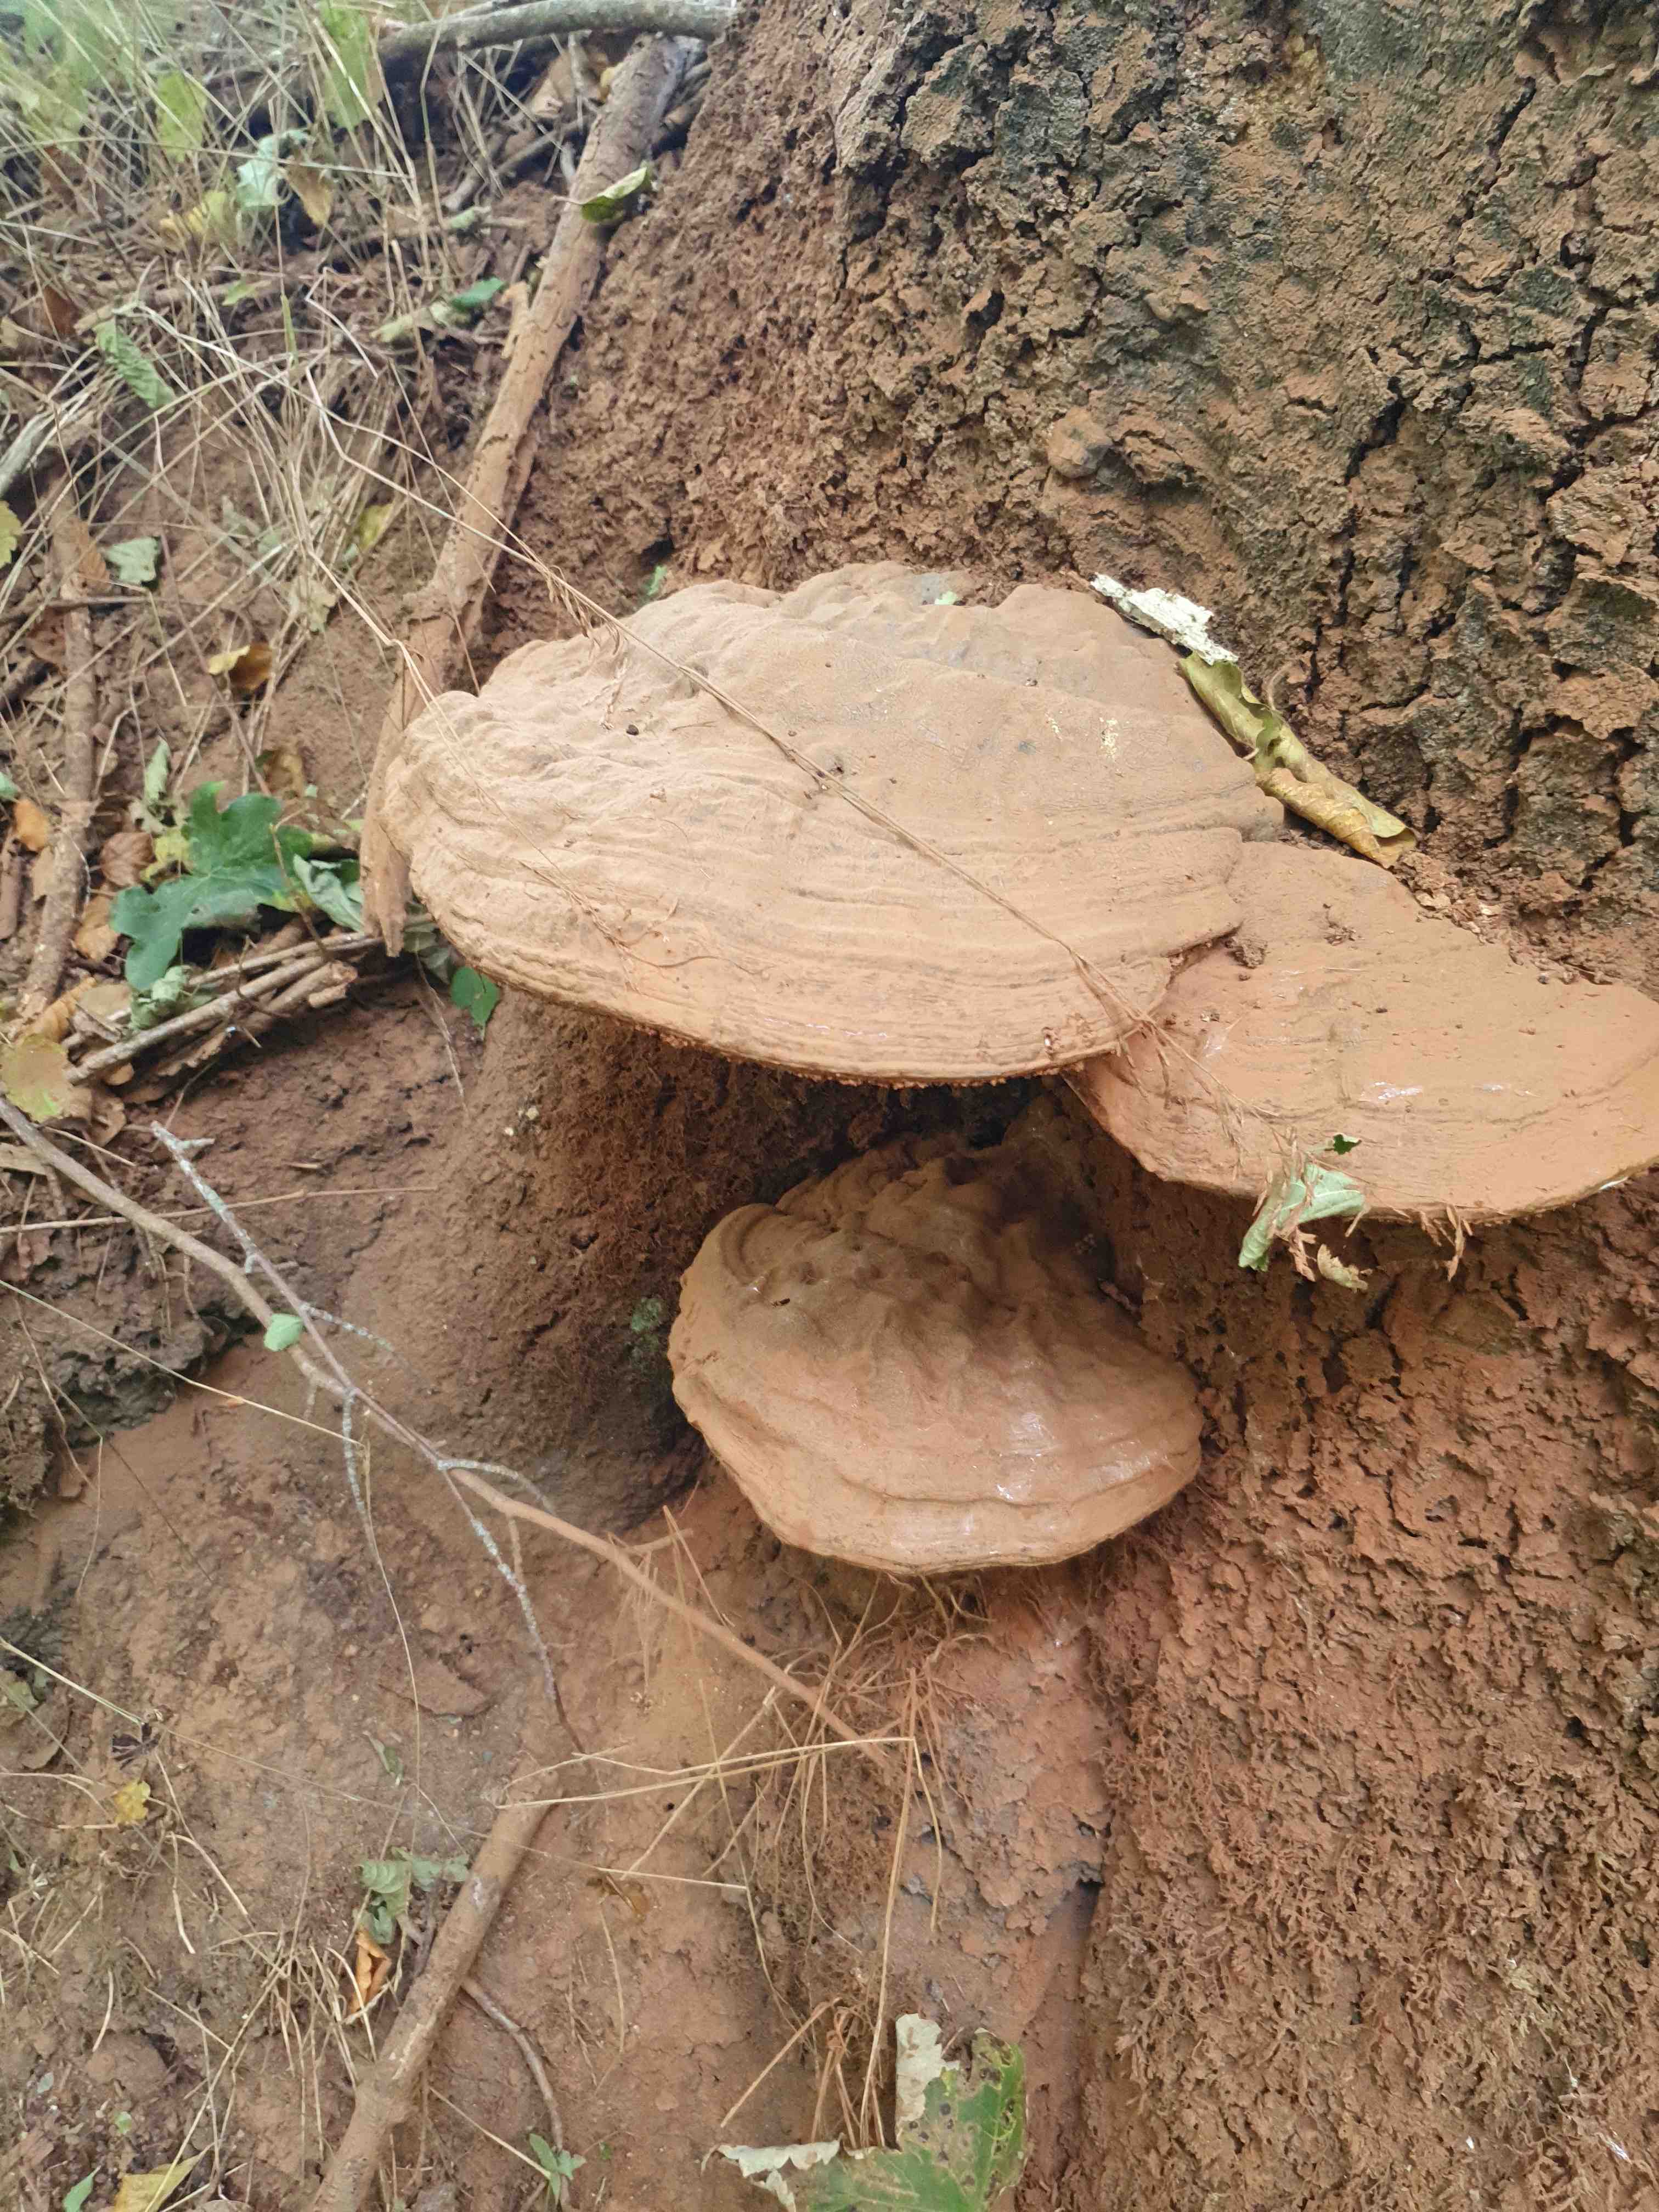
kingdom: Fungi
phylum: Basidiomycota
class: Agaricomycetes
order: Polyporales
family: Polyporaceae
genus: Ganoderma
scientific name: Ganoderma applanatum
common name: flad lakporesvamp
